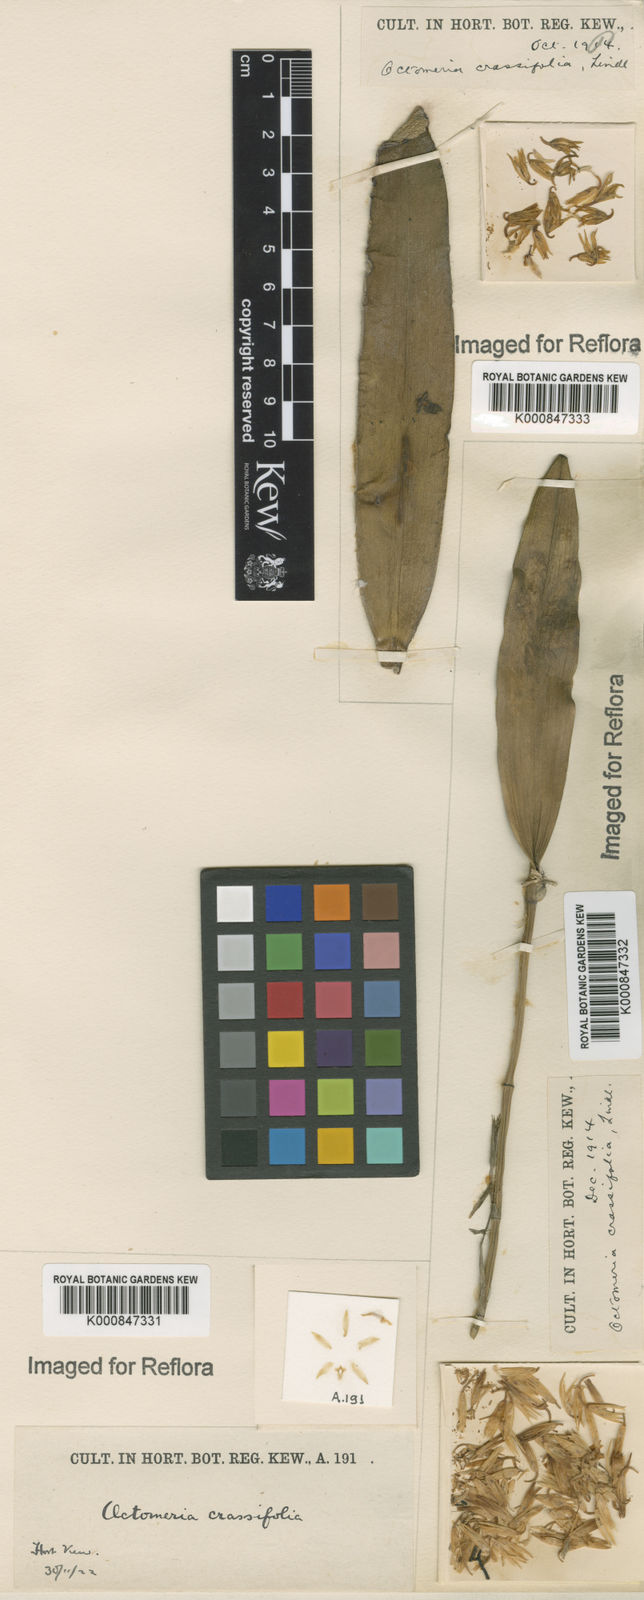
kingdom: Plantae
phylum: Tracheophyta
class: Liliopsida
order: Asparagales
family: Orchidaceae
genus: Octomeria
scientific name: Octomeria crassifolia
